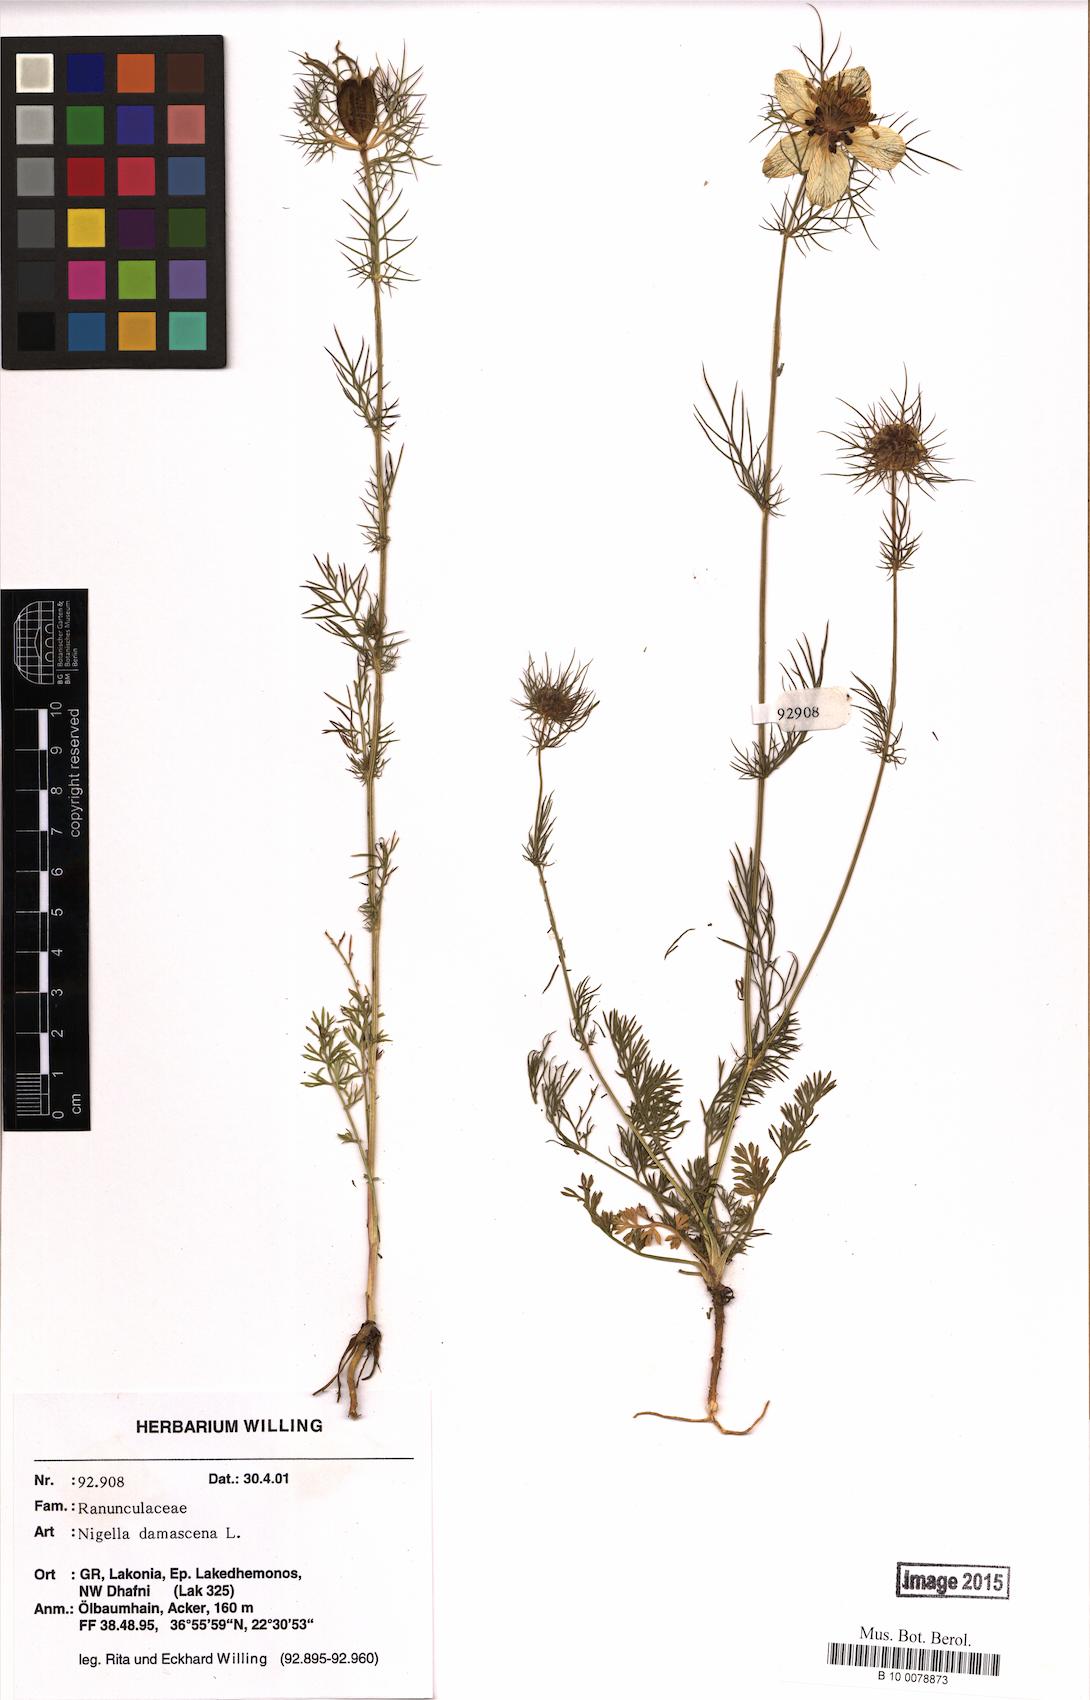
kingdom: Plantae
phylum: Tracheophyta
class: Magnoliopsida
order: Ranunculales
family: Ranunculaceae
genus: Nigella
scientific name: Nigella damascena
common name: Love-in-a-mist
